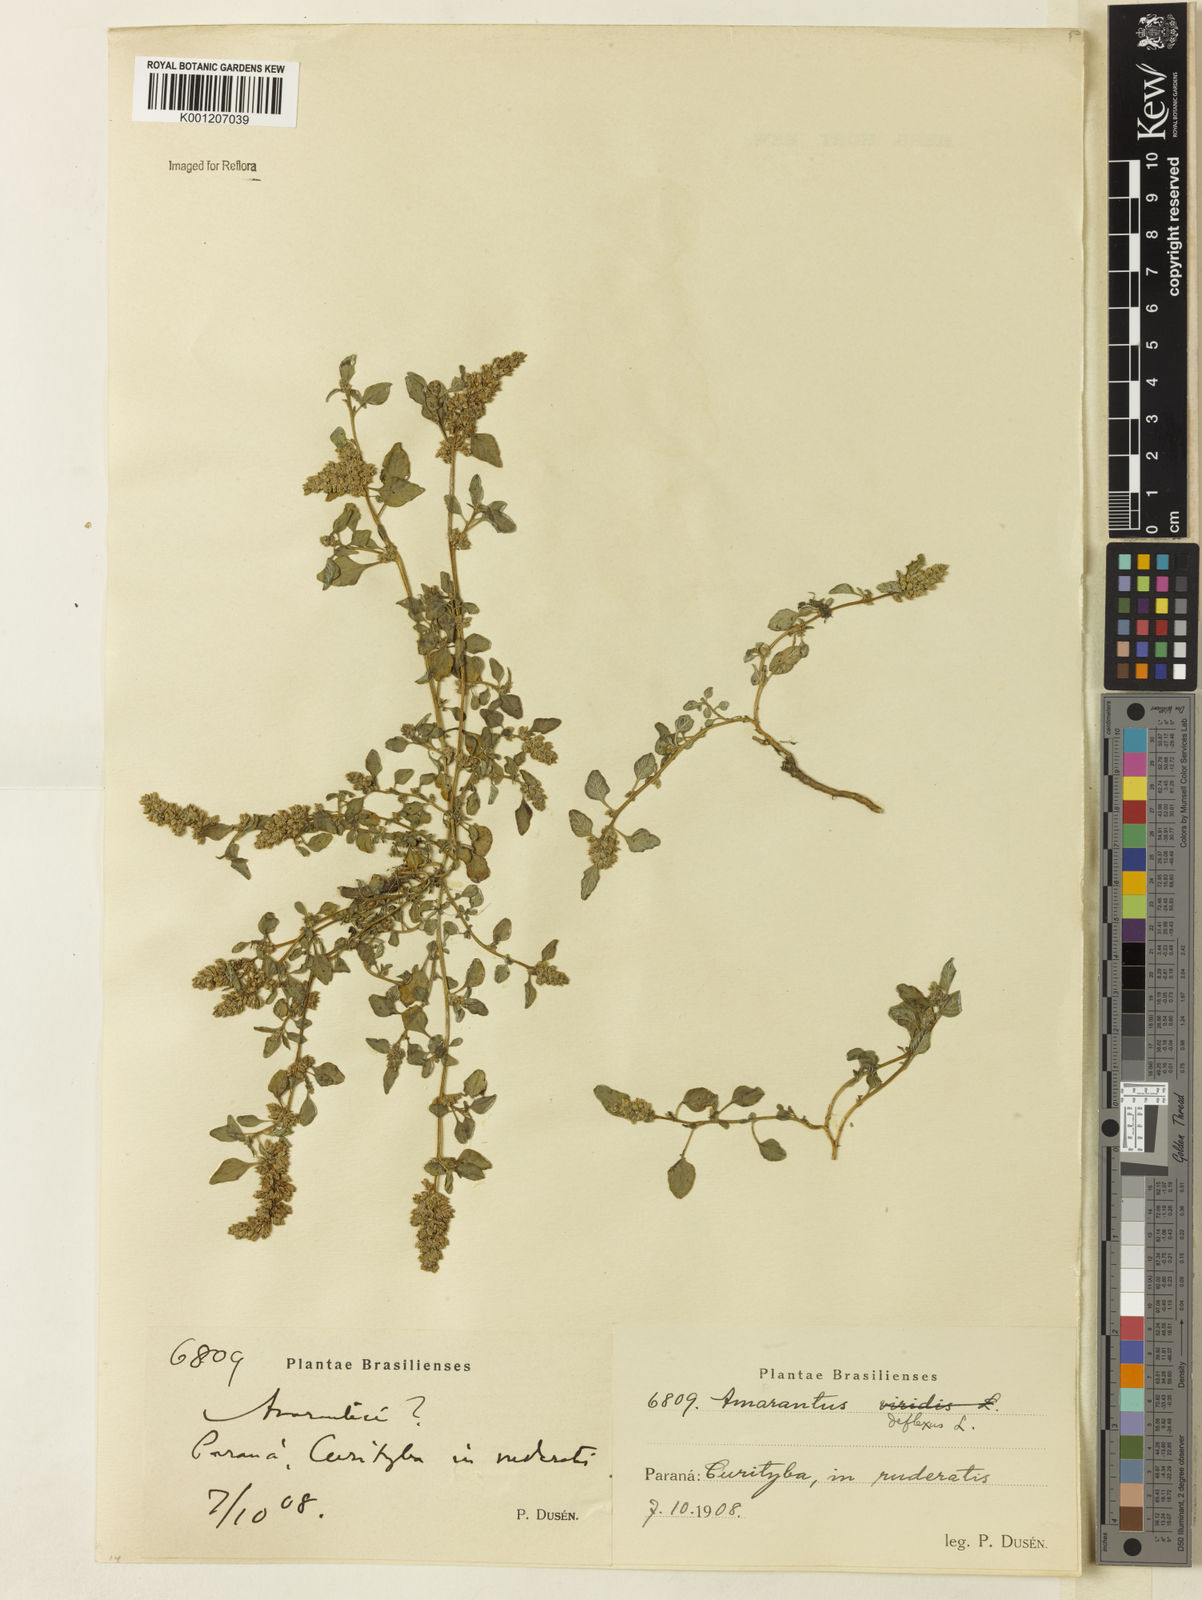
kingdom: Plantae
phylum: Tracheophyta
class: Magnoliopsida
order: Caryophyllales
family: Amaranthaceae
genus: Amaranthus
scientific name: Amaranthus deflexus
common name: Perennial pigweed
